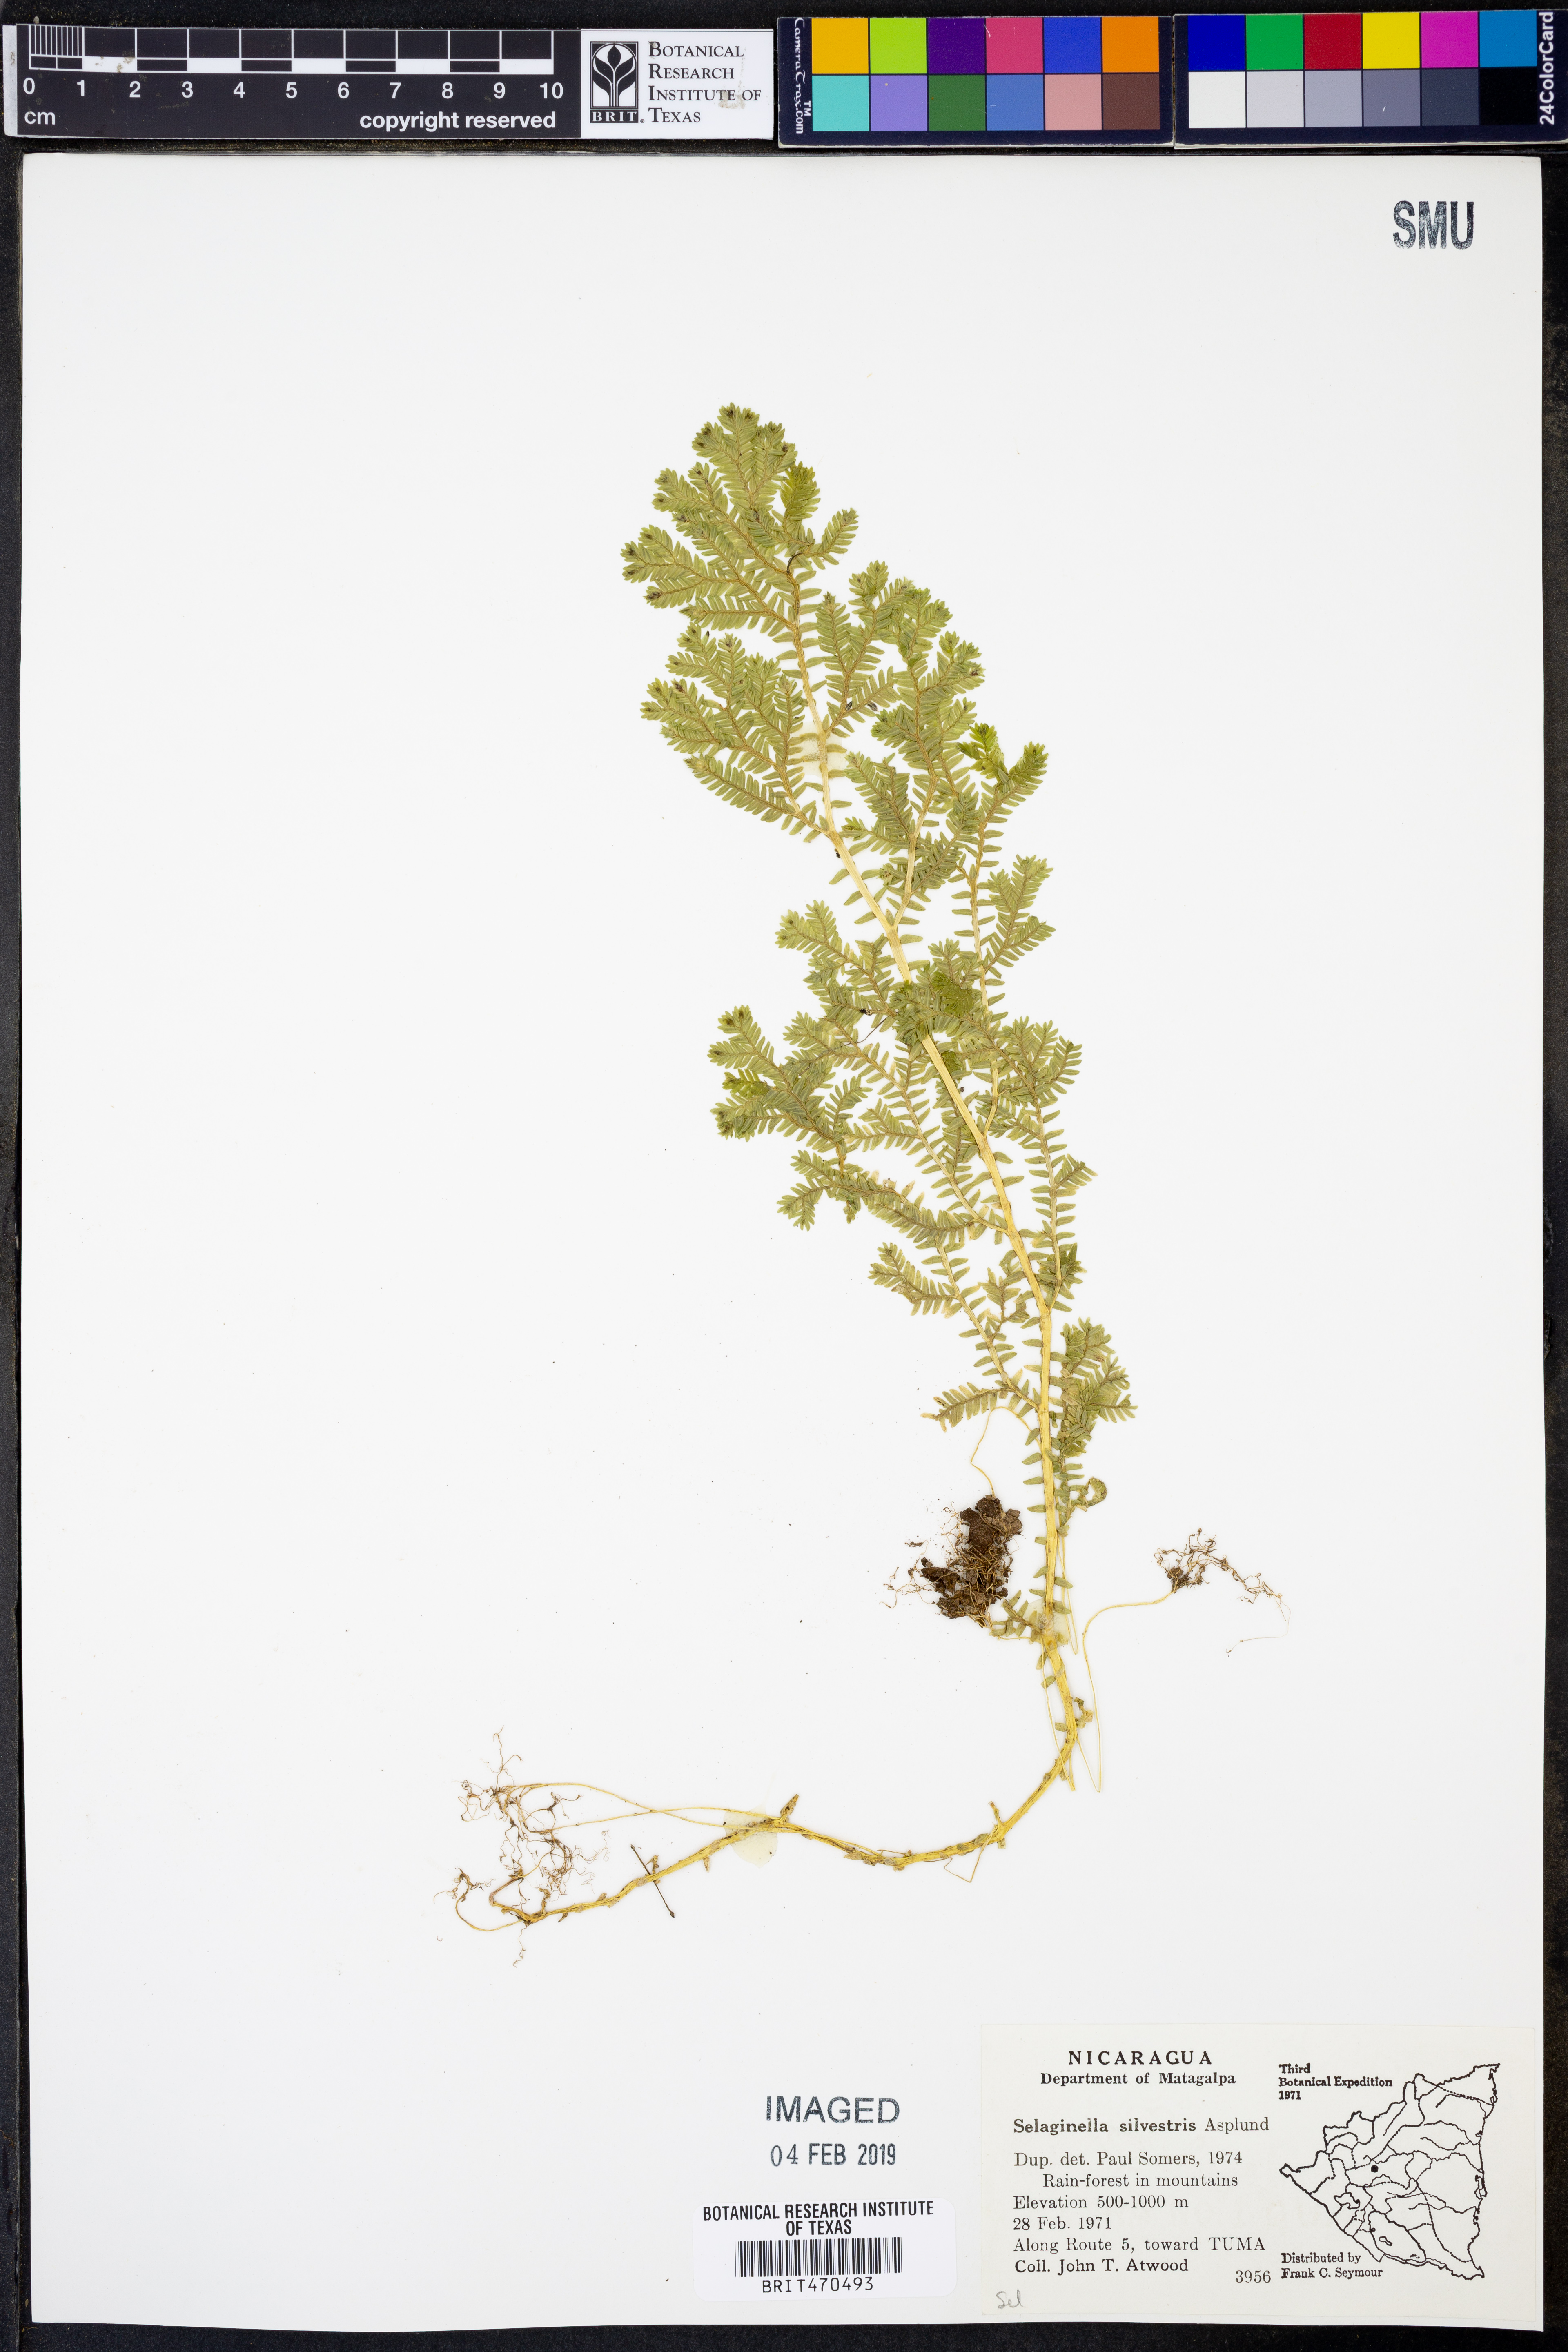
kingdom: Plantae
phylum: Tracheophyta
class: Lycopodiopsida
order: Selaginellales
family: Selaginellaceae
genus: Selaginella
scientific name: Selaginella silvestris
